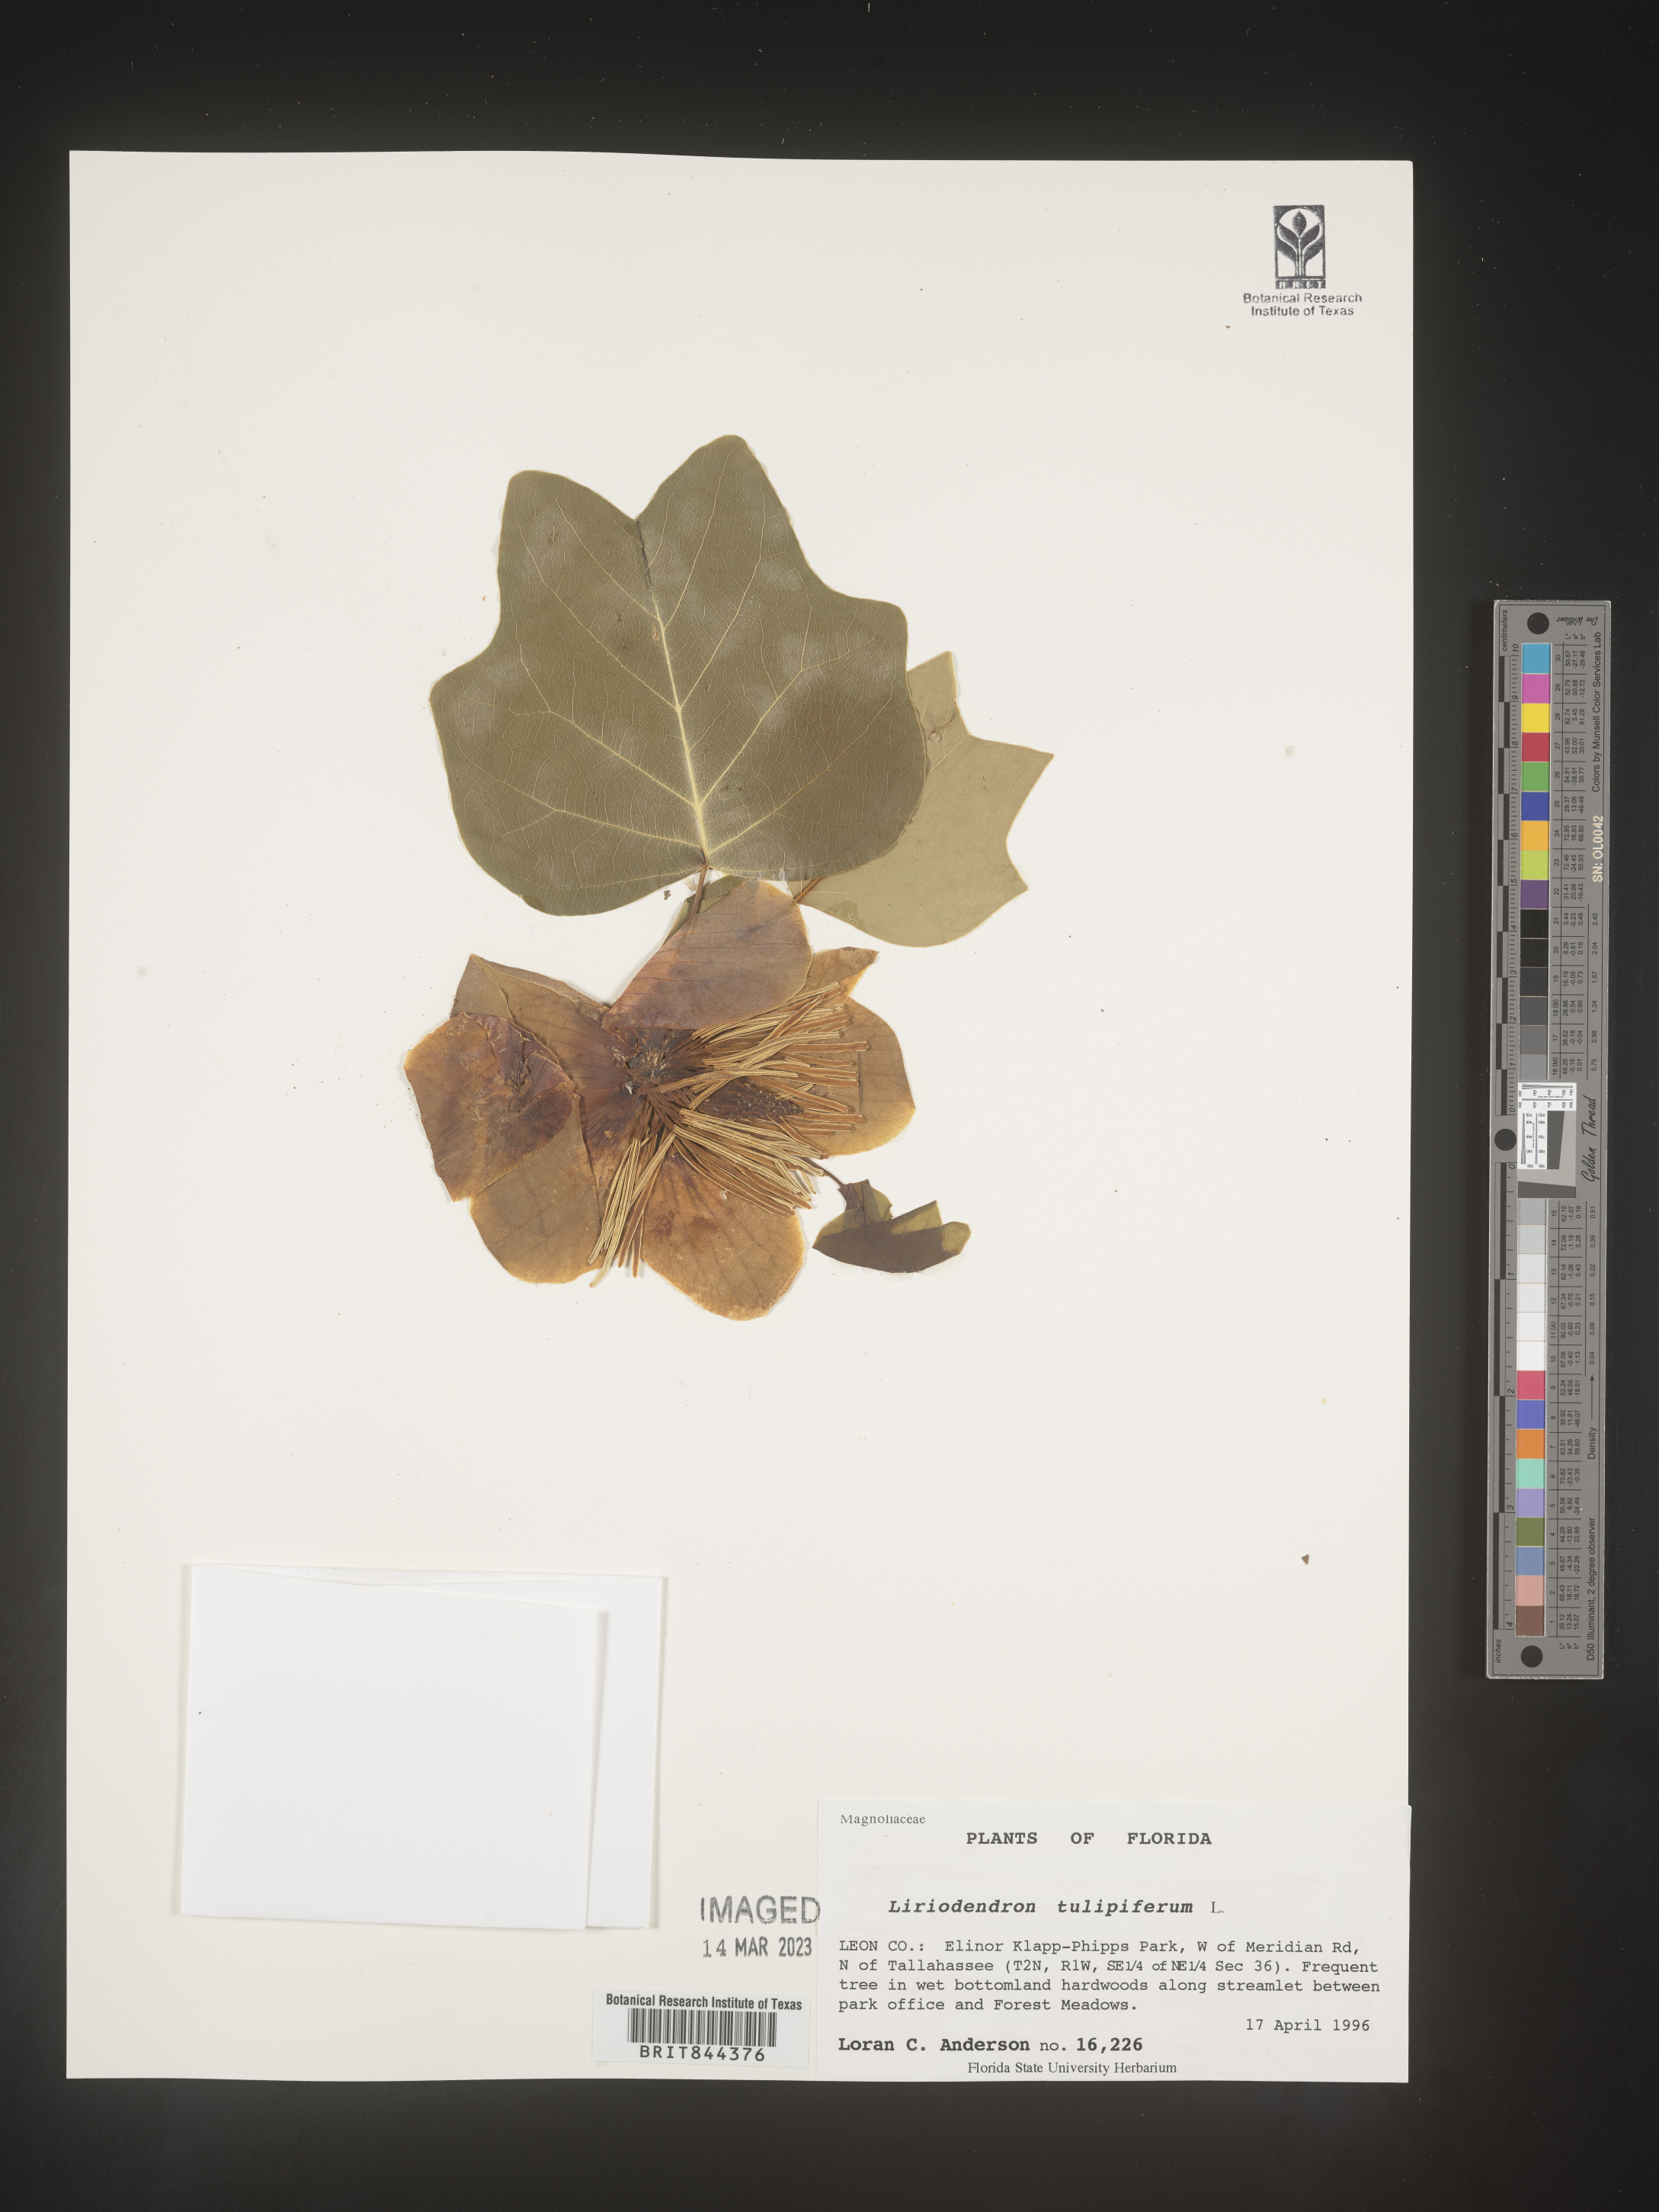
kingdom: Plantae
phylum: Tracheophyta
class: Magnoliopsida
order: Magnoliales
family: Magnoliaceae
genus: Liriodendron
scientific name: Liriodendron tulipifera
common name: Tulip tree
